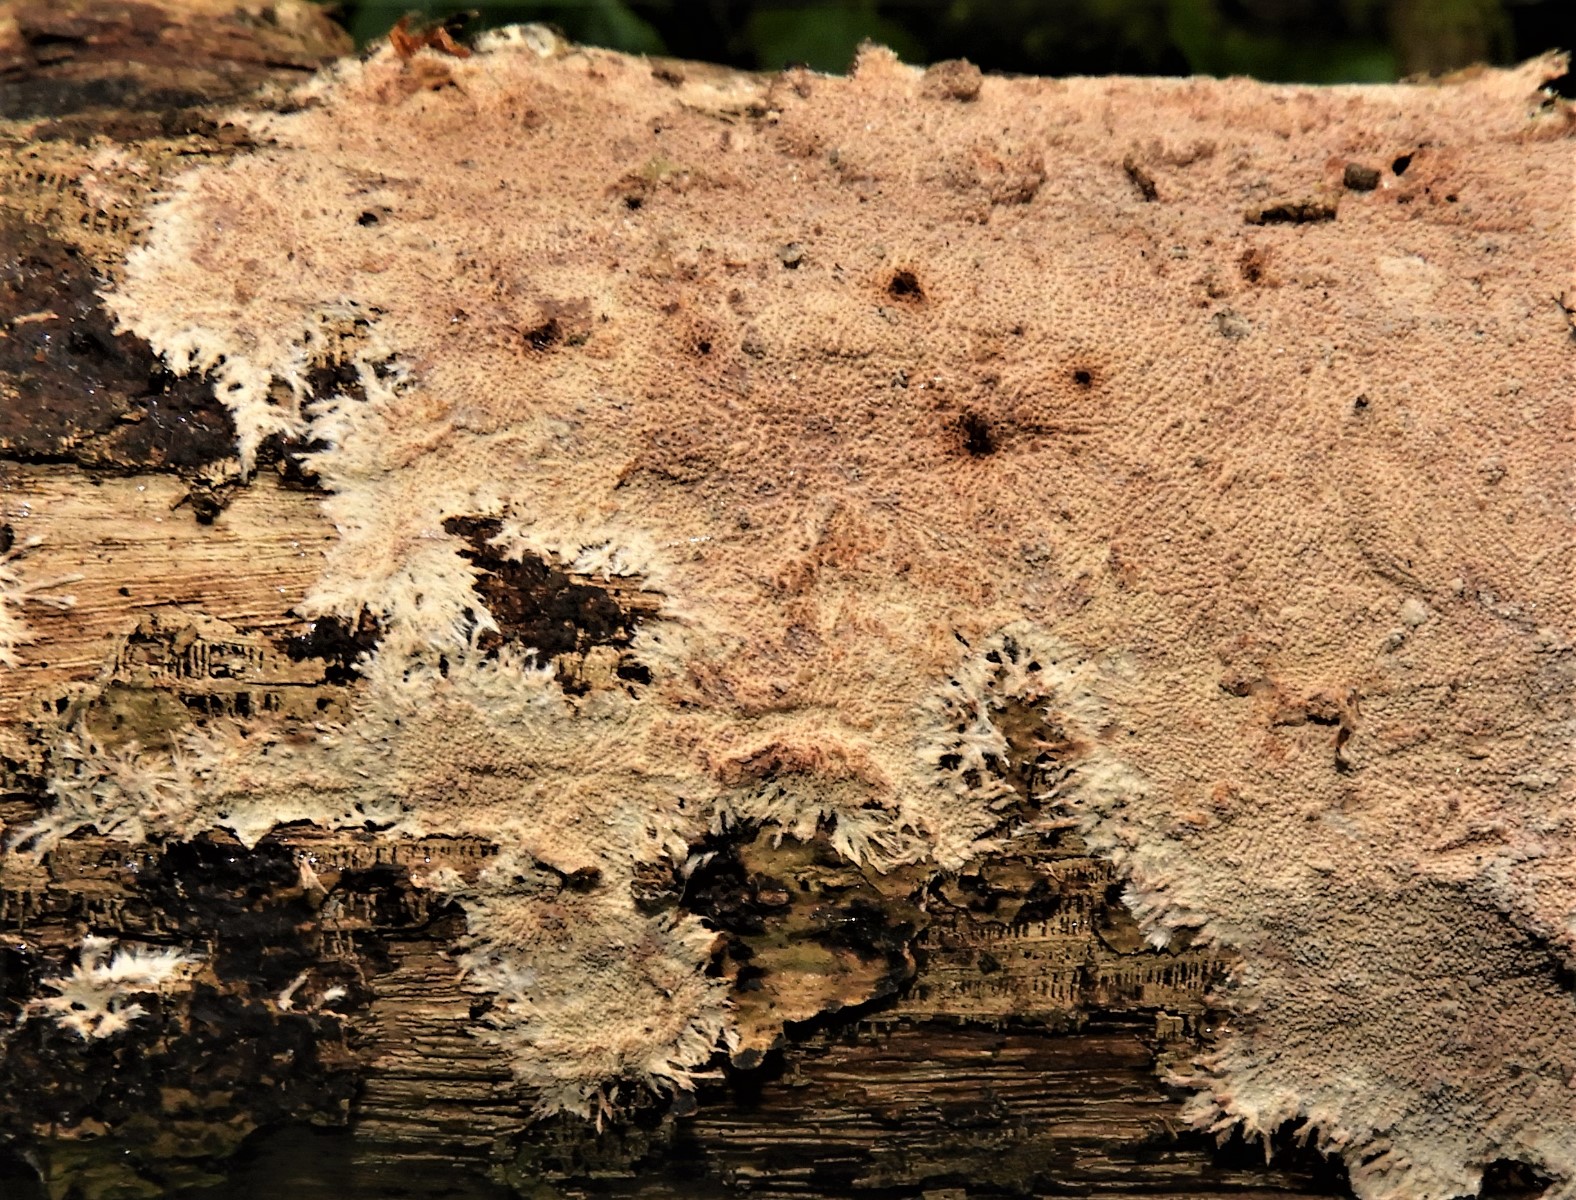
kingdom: Fungi
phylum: Basidiomycota
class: Agaricomycetes
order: Polyporales
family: Steccherinaceae
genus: Steccherinum
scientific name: Steccherinum fimbriatum
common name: trådet skønpig
